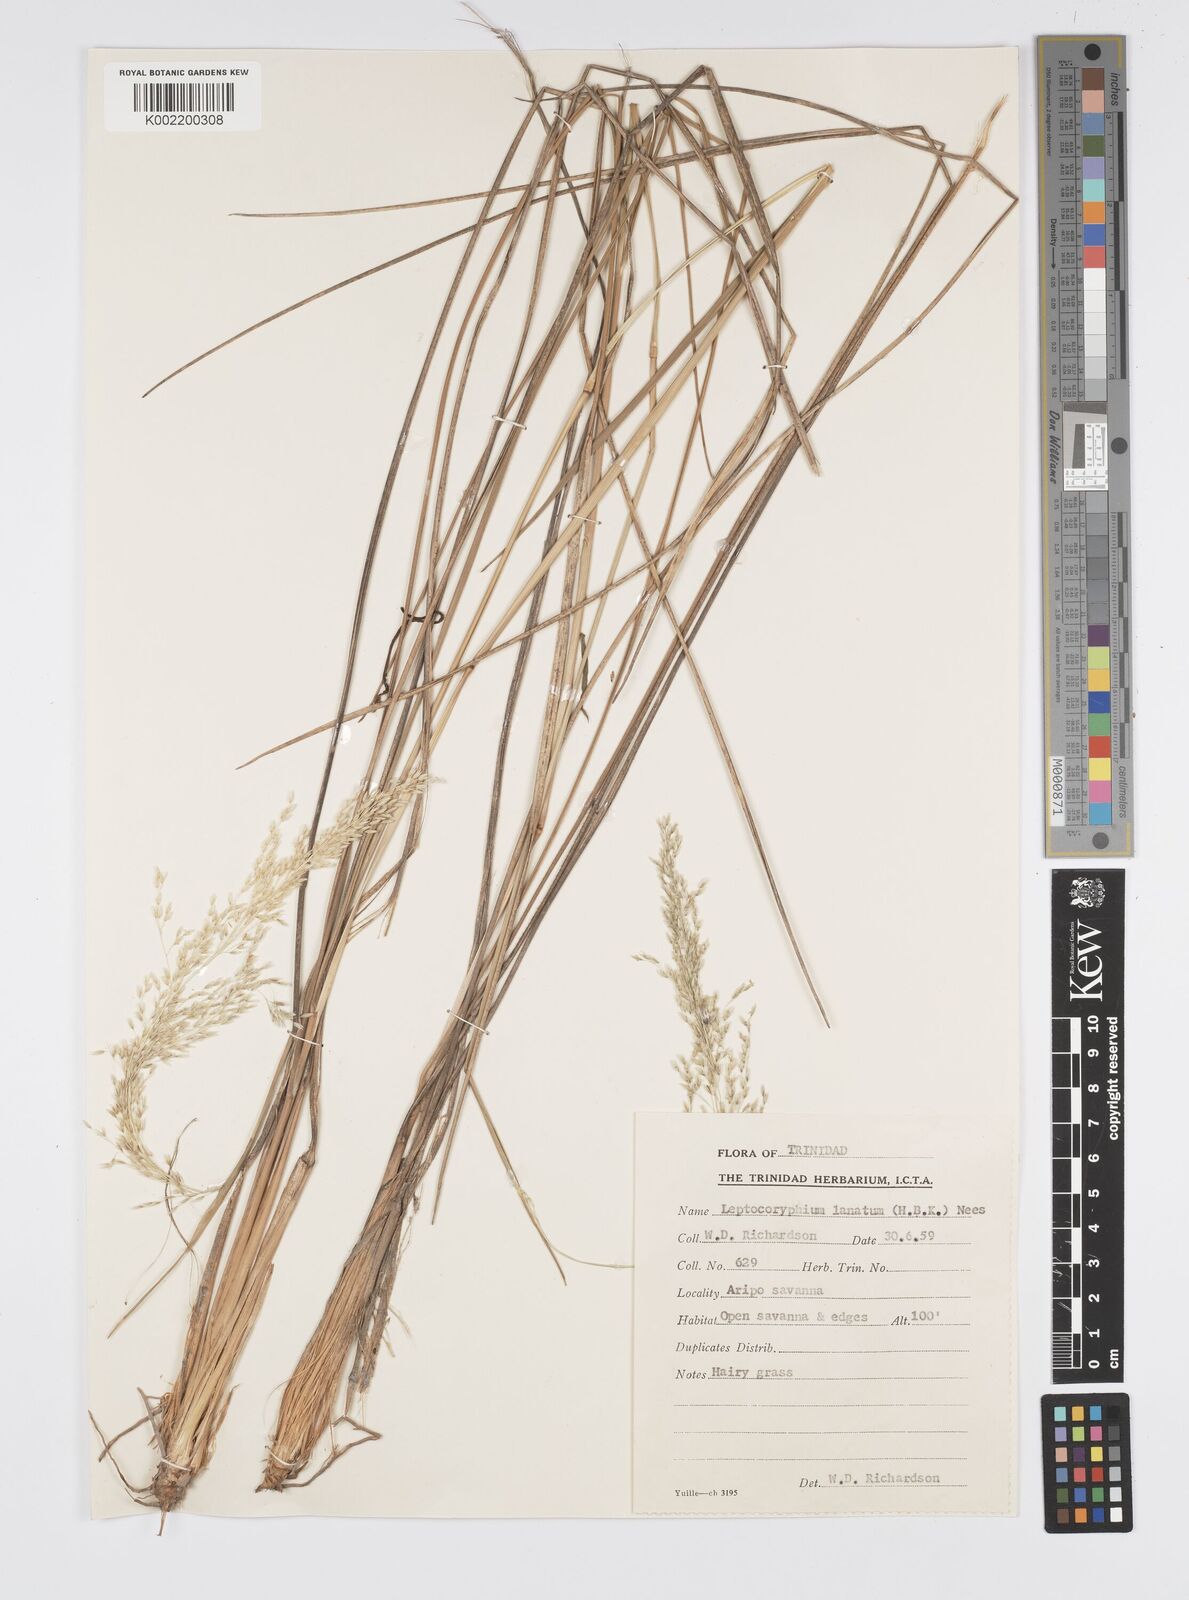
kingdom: Plantae
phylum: Tracheophyta
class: Liliopsida
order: Poales
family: Poaceae
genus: Anthenantia
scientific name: Anthenantia lanata
